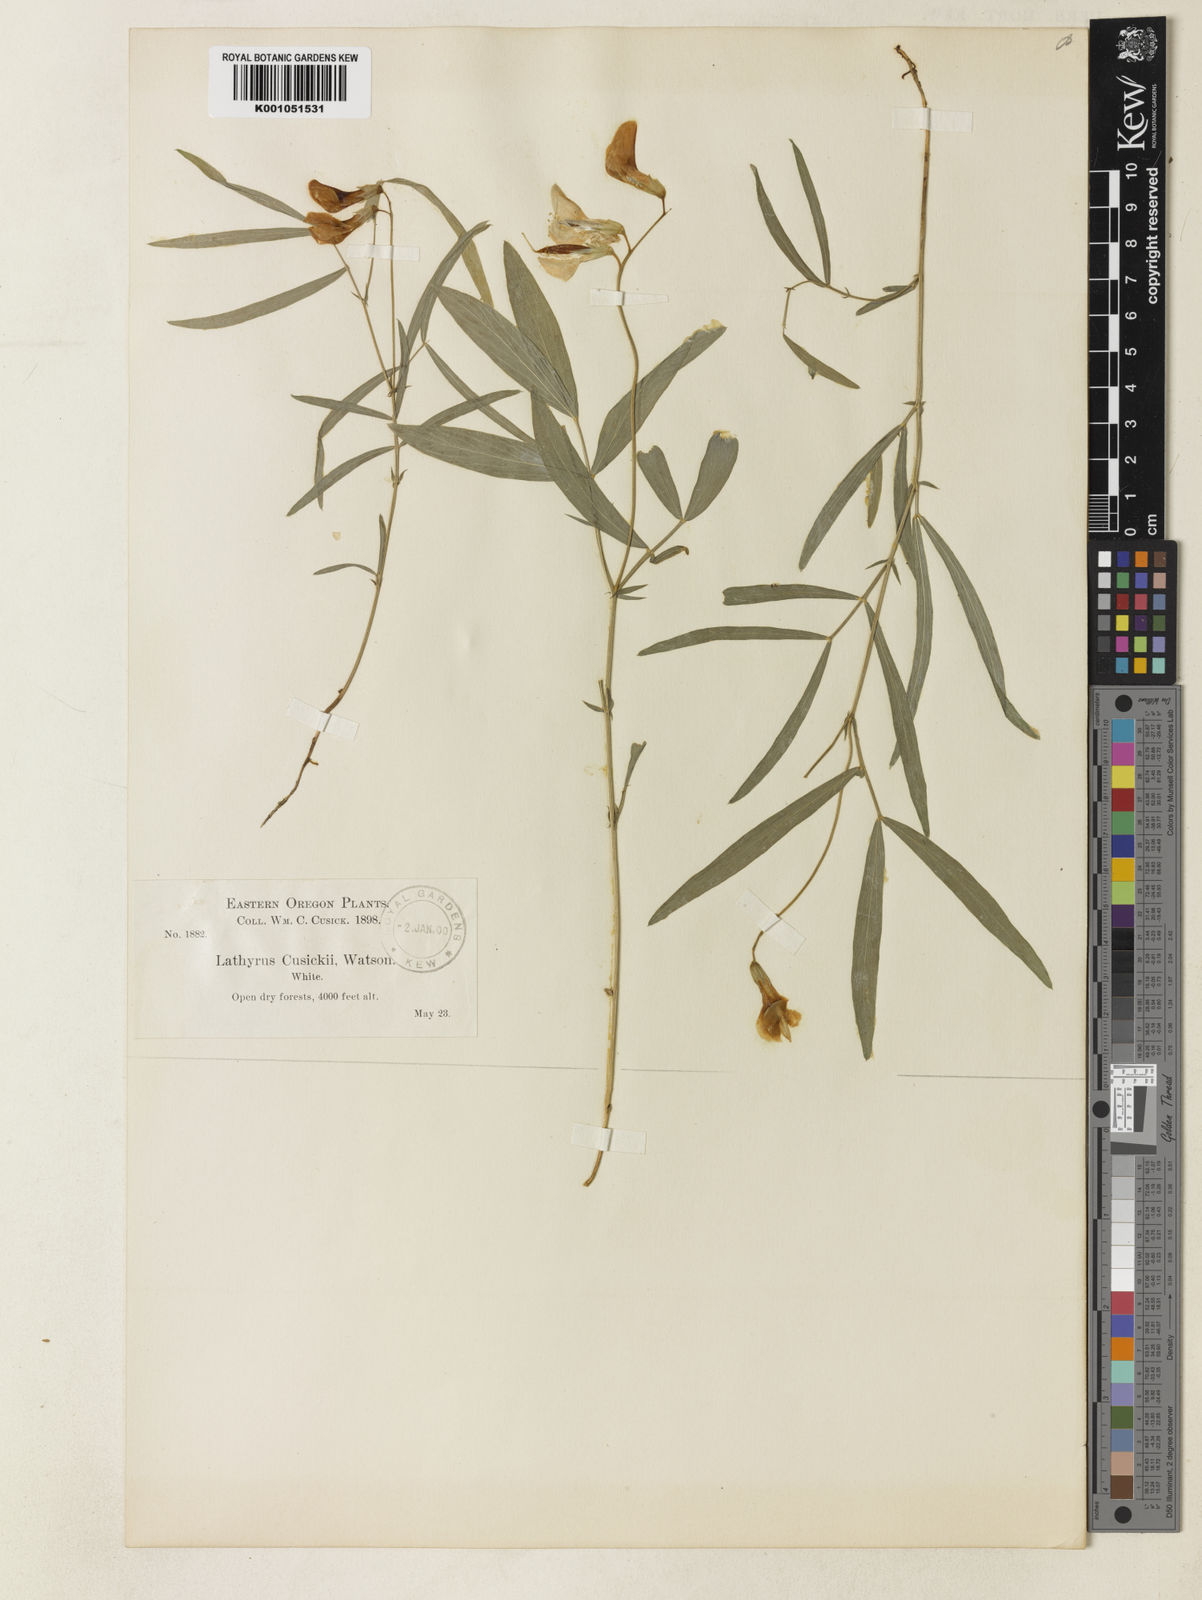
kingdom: Plantae
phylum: Tracheophyta
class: Magnoliopsida
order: Fabales
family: Fabaceae
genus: Lathyrus
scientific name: Lathyrus nevadensis
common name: Sierra nevada peavine
